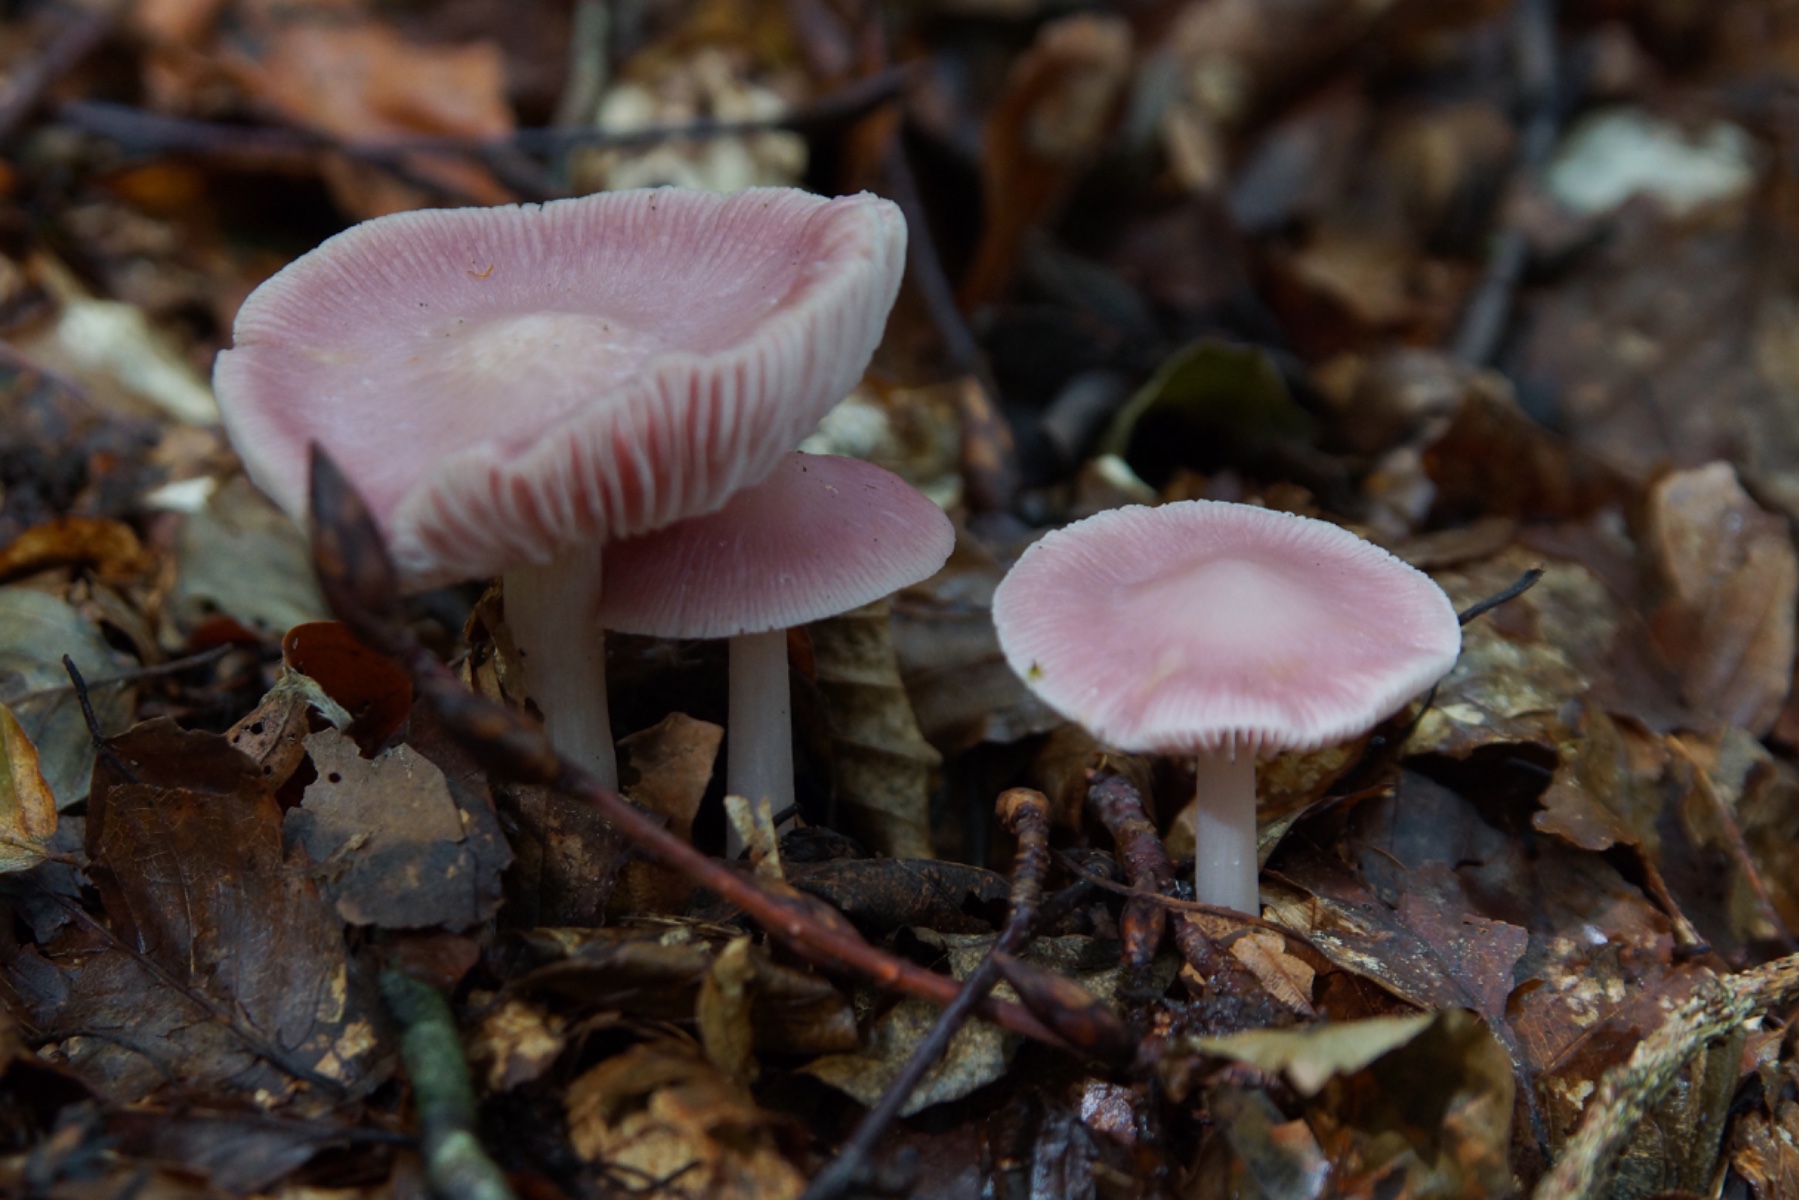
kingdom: Fungi
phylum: Basidiomycota
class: Agaricomycetes
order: Agaricales
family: Mycenaceae
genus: Mycena
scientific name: Mycena rosea
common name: rosa huesvamp
